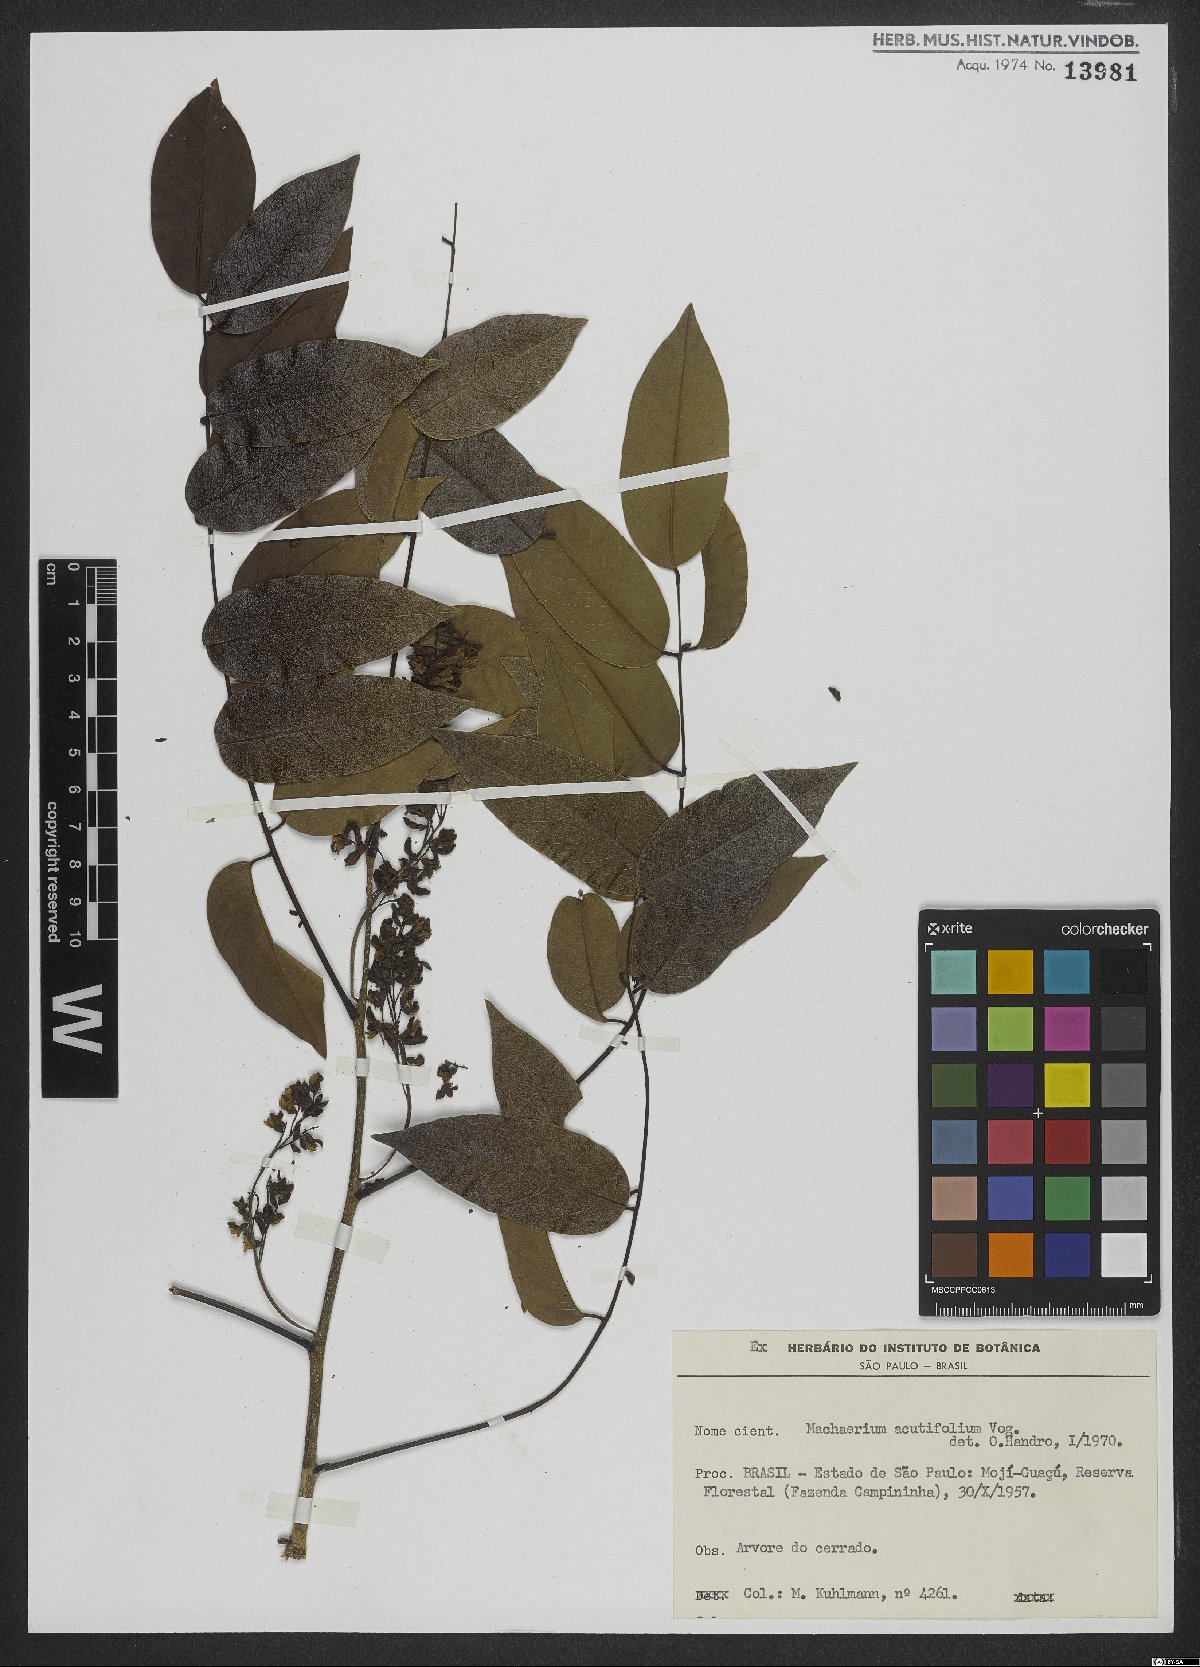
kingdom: Plantae
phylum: Tracheophyta
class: Magnoliopsida
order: Fabales
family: Fabaceae
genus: Machaerium
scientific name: Machaerium acutifolium
